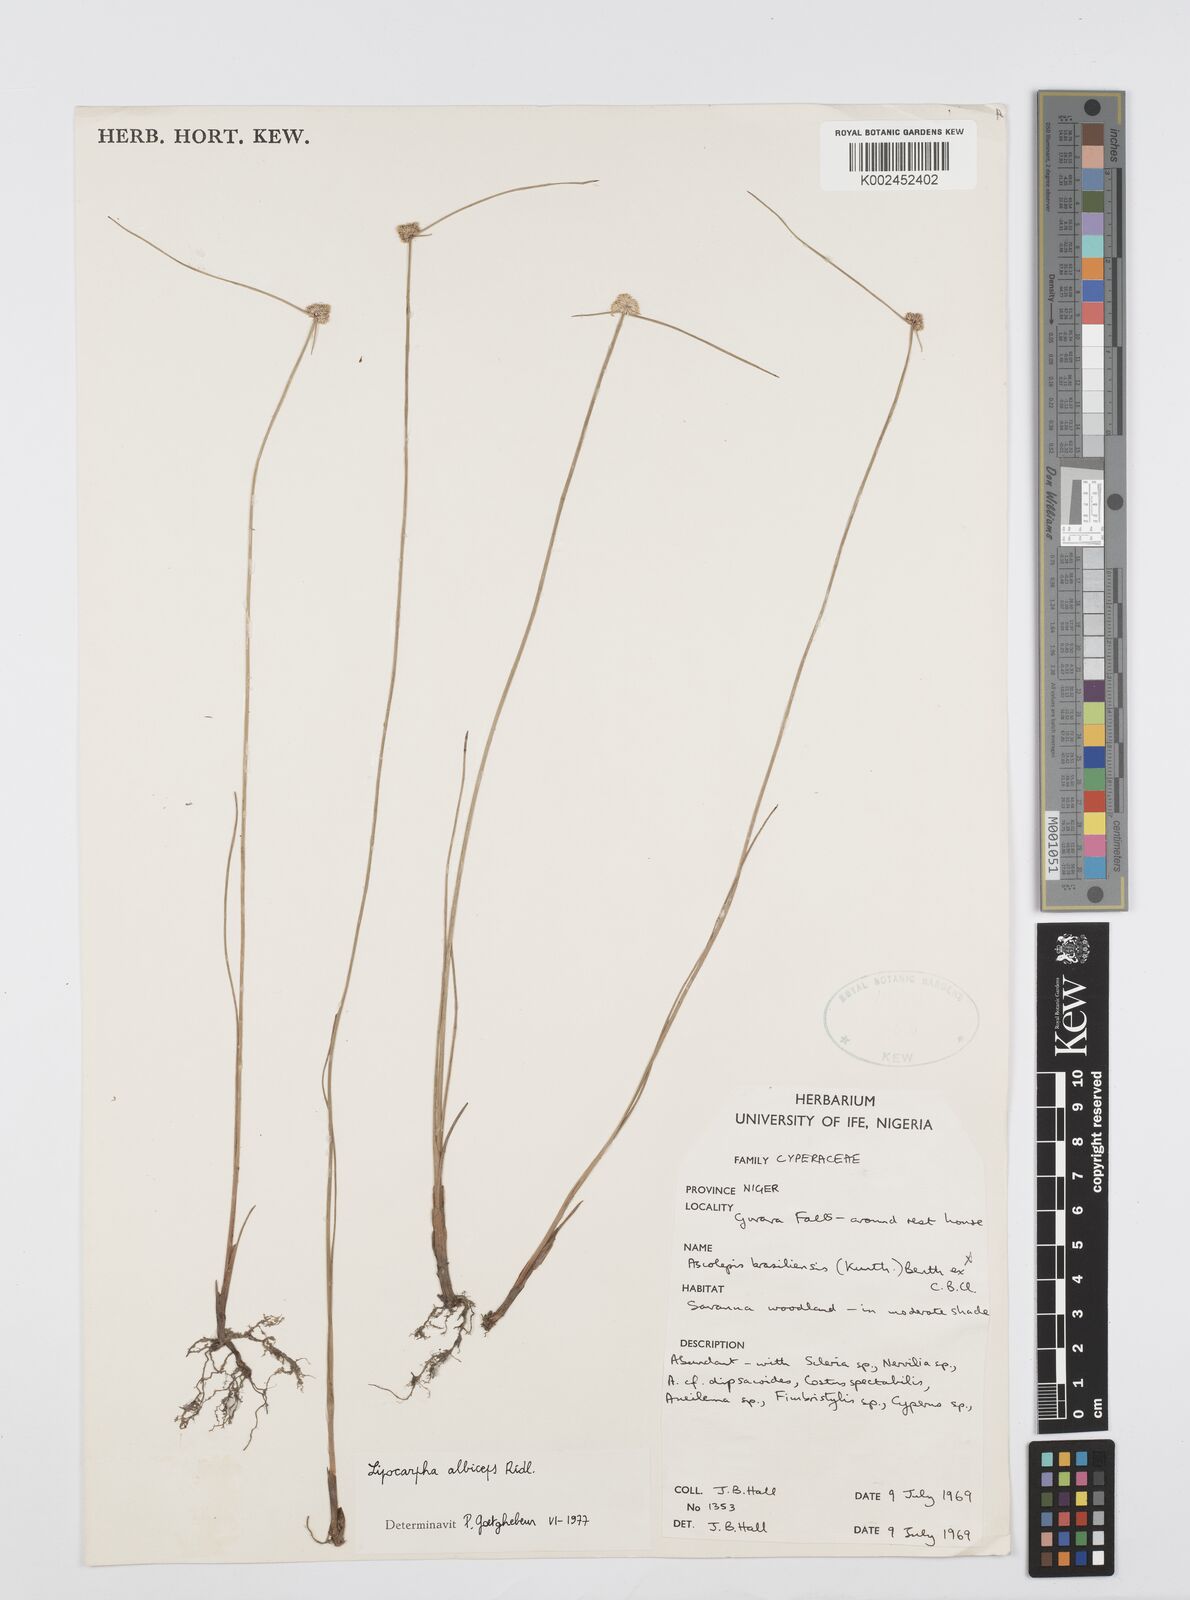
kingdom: Plantae
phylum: Tracheophyta
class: Liliopsida
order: Poales
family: Cyperaceae
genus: Cyperus
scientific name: Cyperus albiceps
